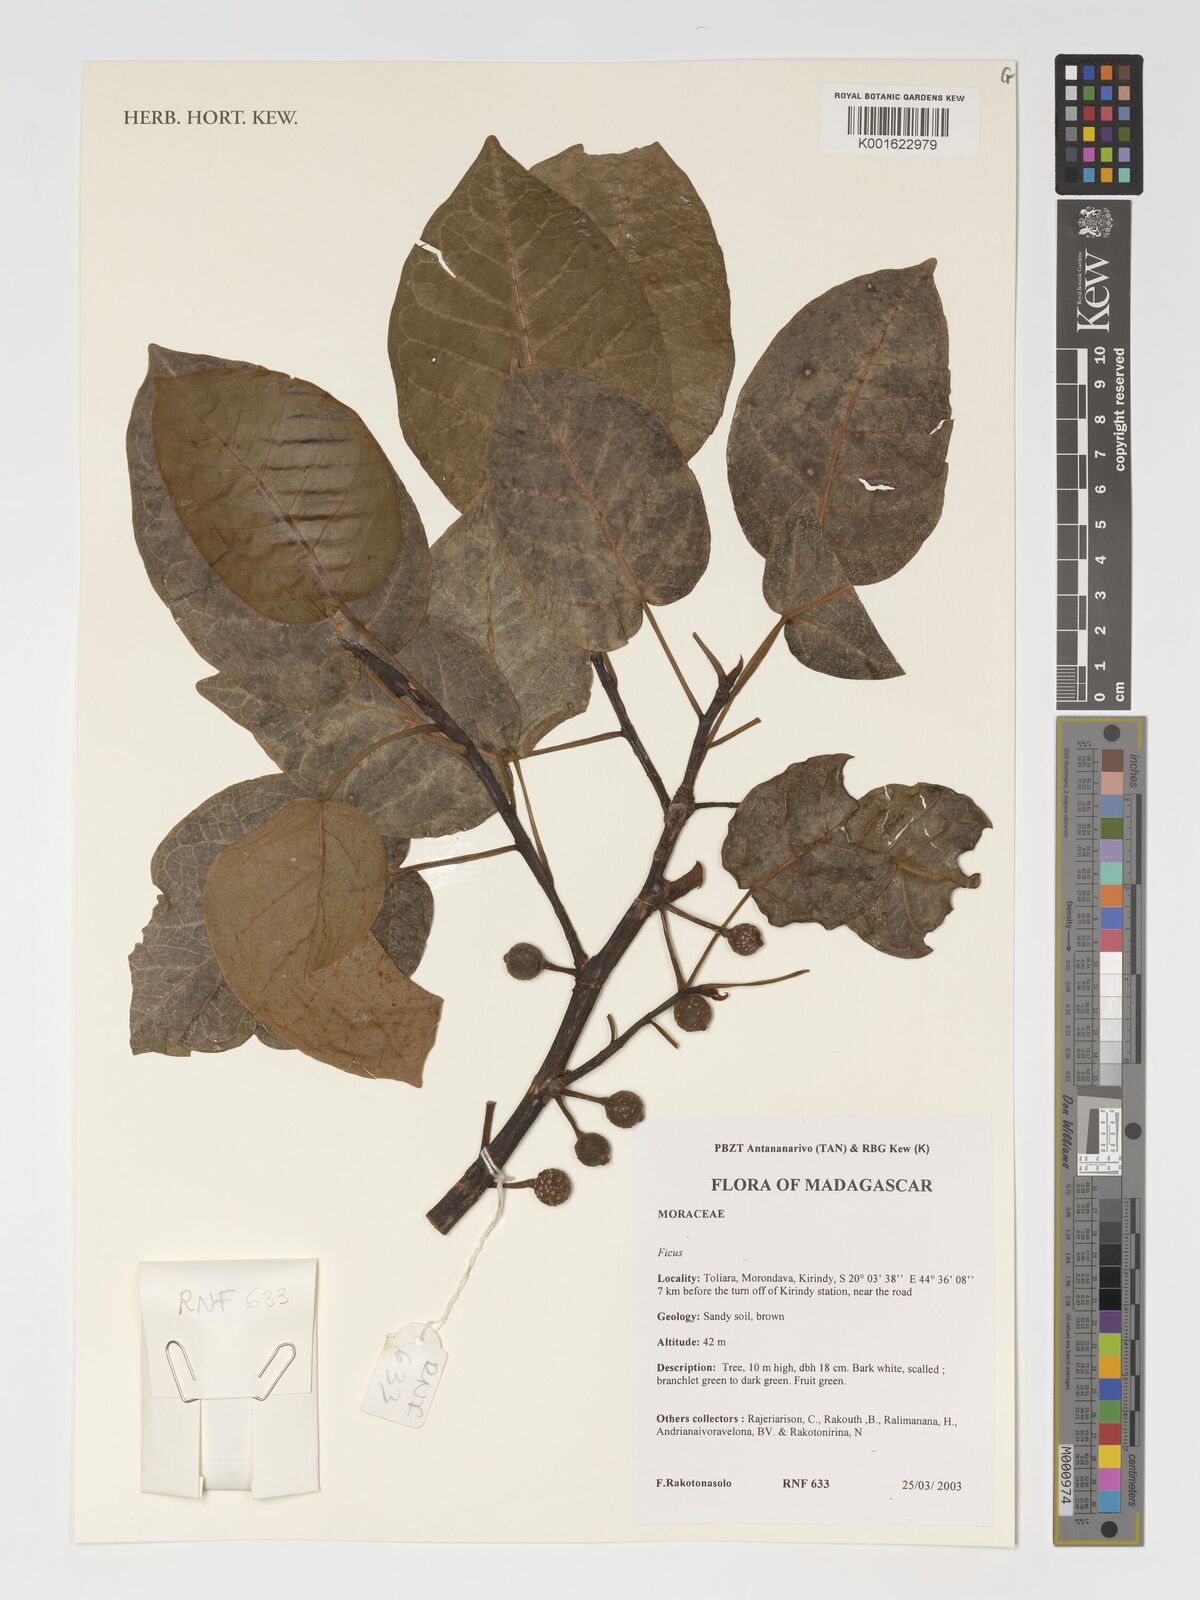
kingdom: Plantae
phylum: Tracheophyta
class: Magnoliopsida
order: Rosales
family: Moraceae
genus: Ficus
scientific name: Ficus
